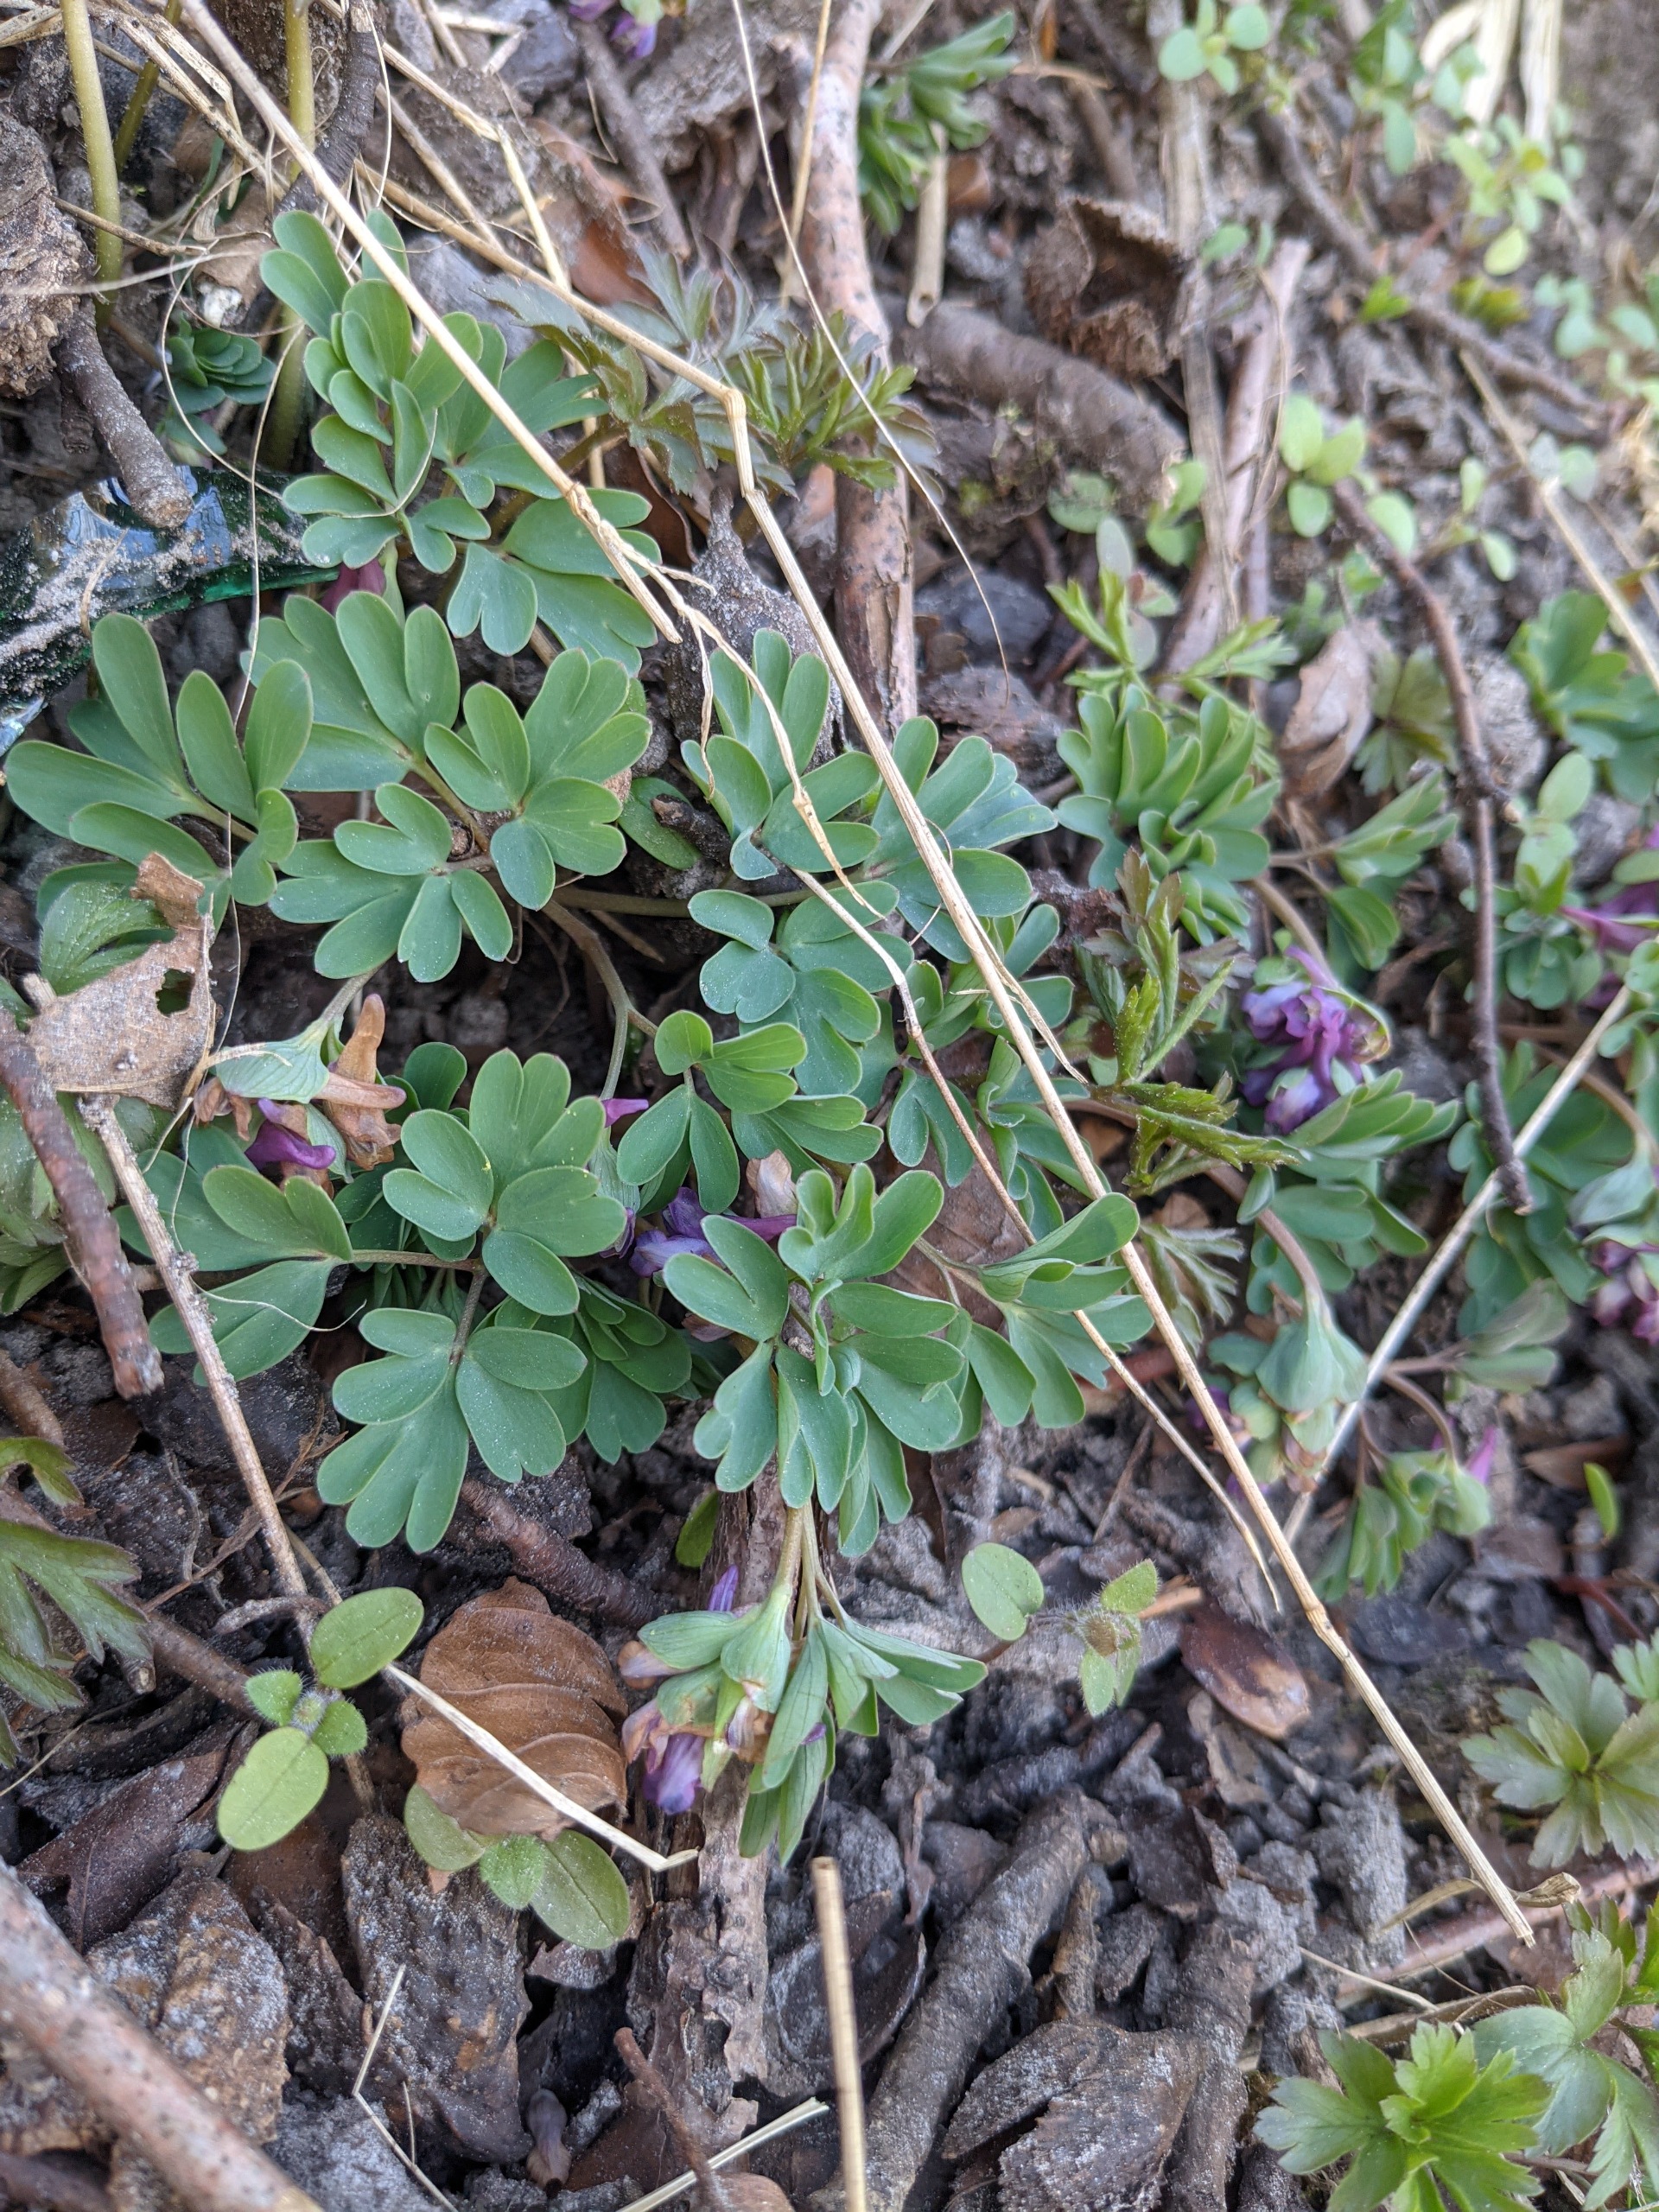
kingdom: Plantae
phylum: Tracheophyta
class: Magnoliopsida
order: Ranunculales
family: Papaveraceae
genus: Corydalis
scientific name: Corydalis intermedia
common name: Liden lærkespore
